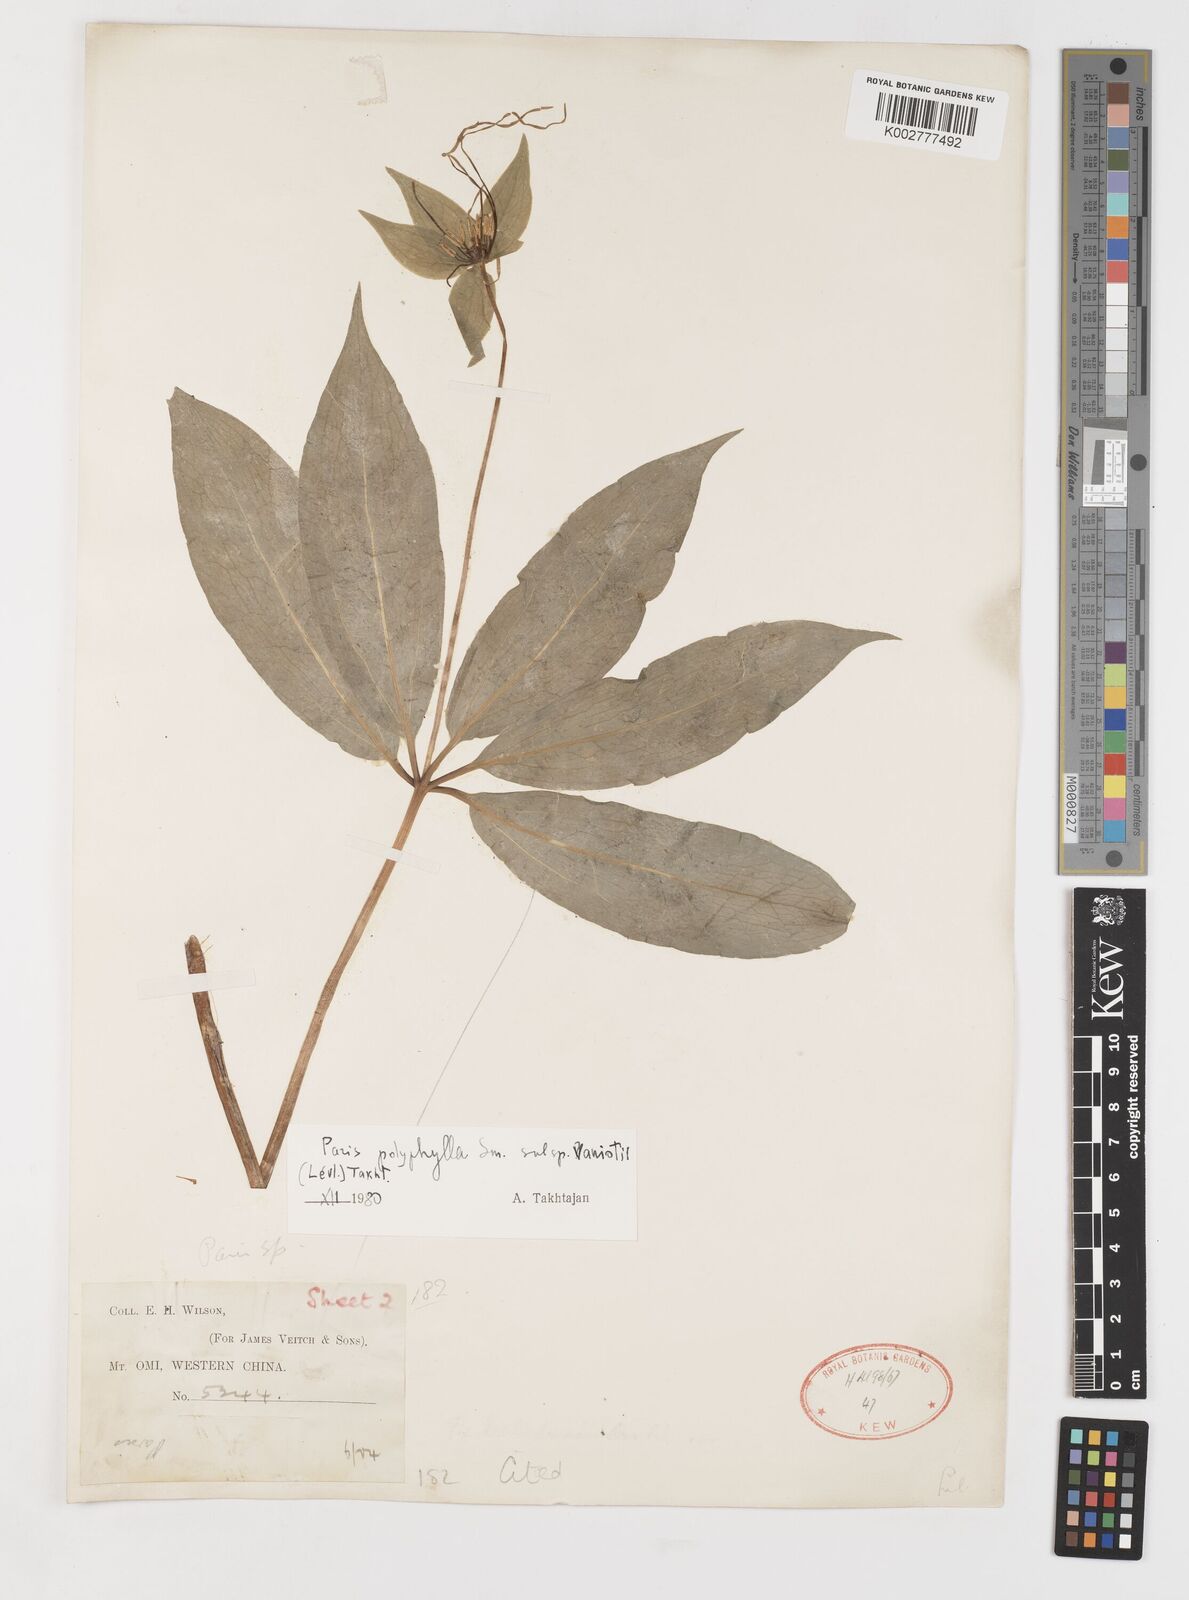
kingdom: Plantae
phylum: Tracheophyta
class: Liliopsida
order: Liliales
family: Melanthiaceae
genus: Paris
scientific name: Paris delavayi
